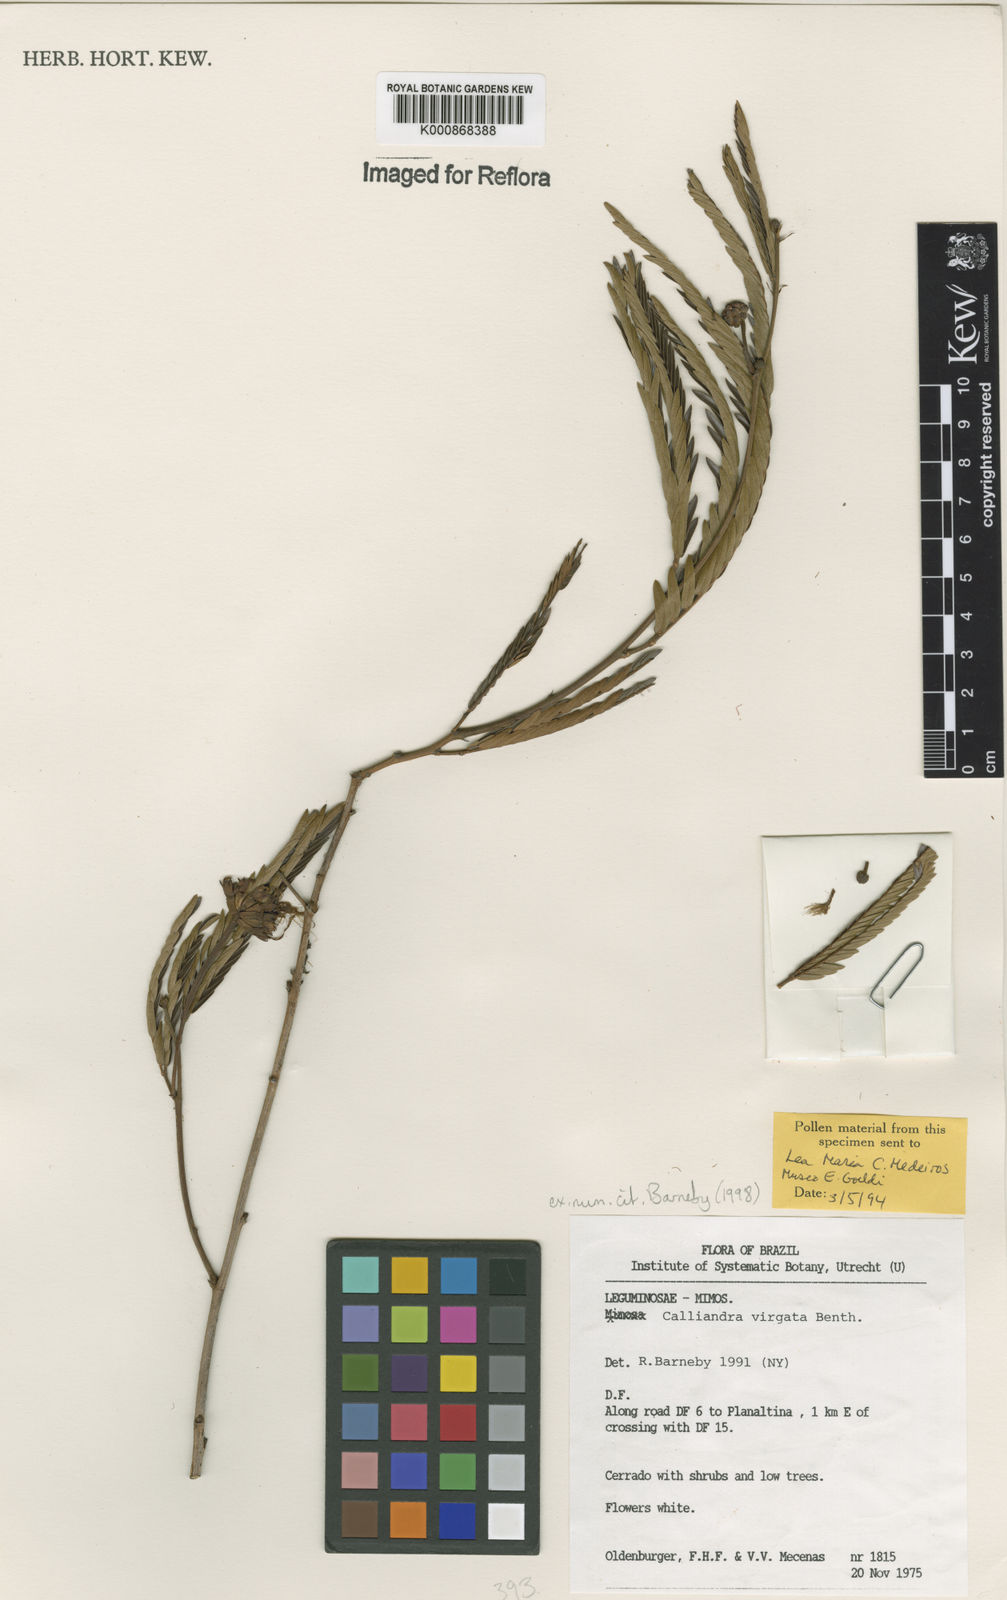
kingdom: Plantae
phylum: Tracheophyta
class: Magnoliopsida
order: Fabales
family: Fabaceae
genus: Calliandra
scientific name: Calliandra virgata
